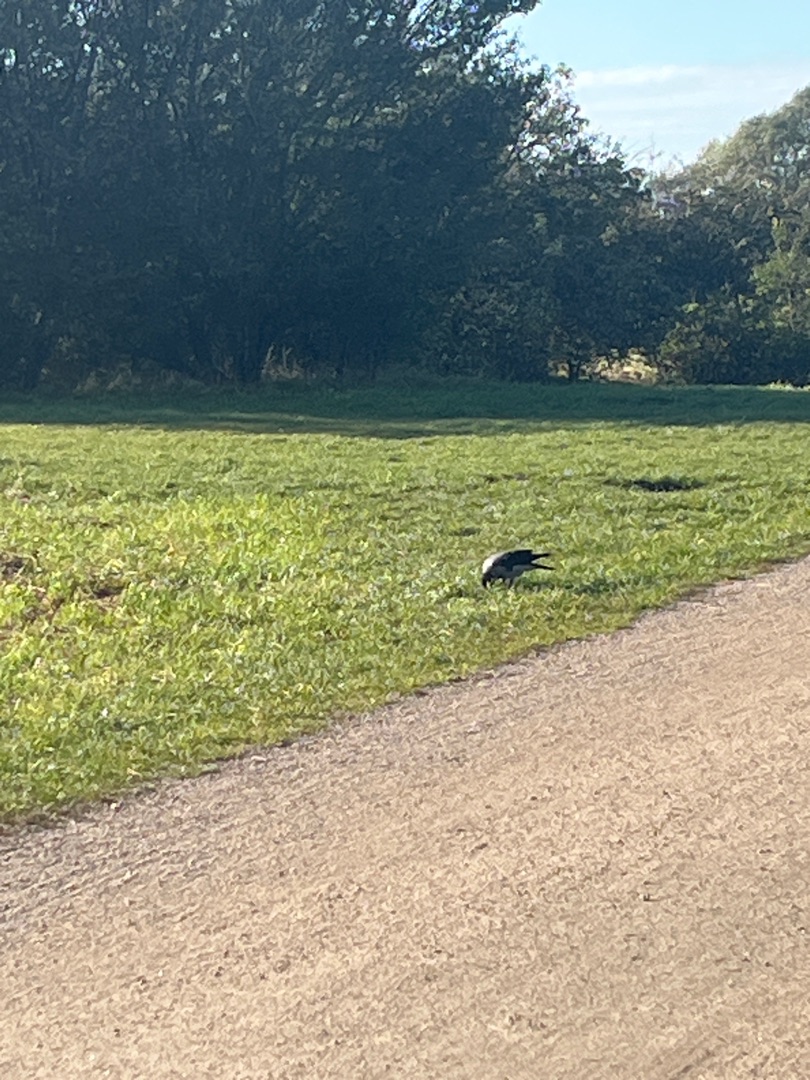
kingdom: Animalia
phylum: Chordata
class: Aves
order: Passeriformes
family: Corvidae
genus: Corvus
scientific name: Corvus cornix
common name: Gråkrage
